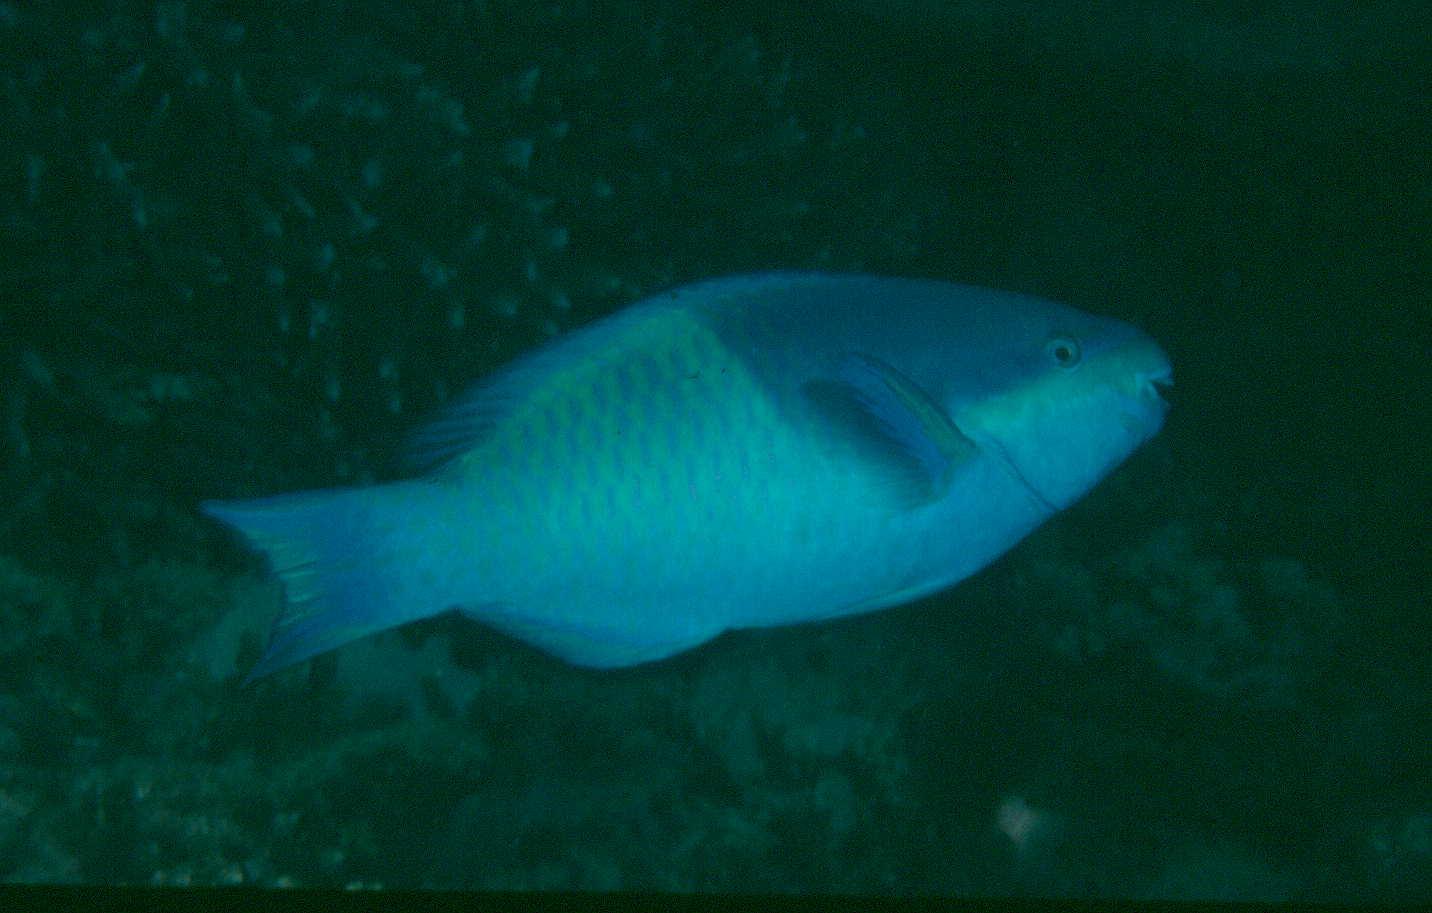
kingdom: Animalia
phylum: Chordata
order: Perciformes
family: Scaridae
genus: Scarus
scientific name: Scarus scaber
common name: Dusky-capped parrotfish
